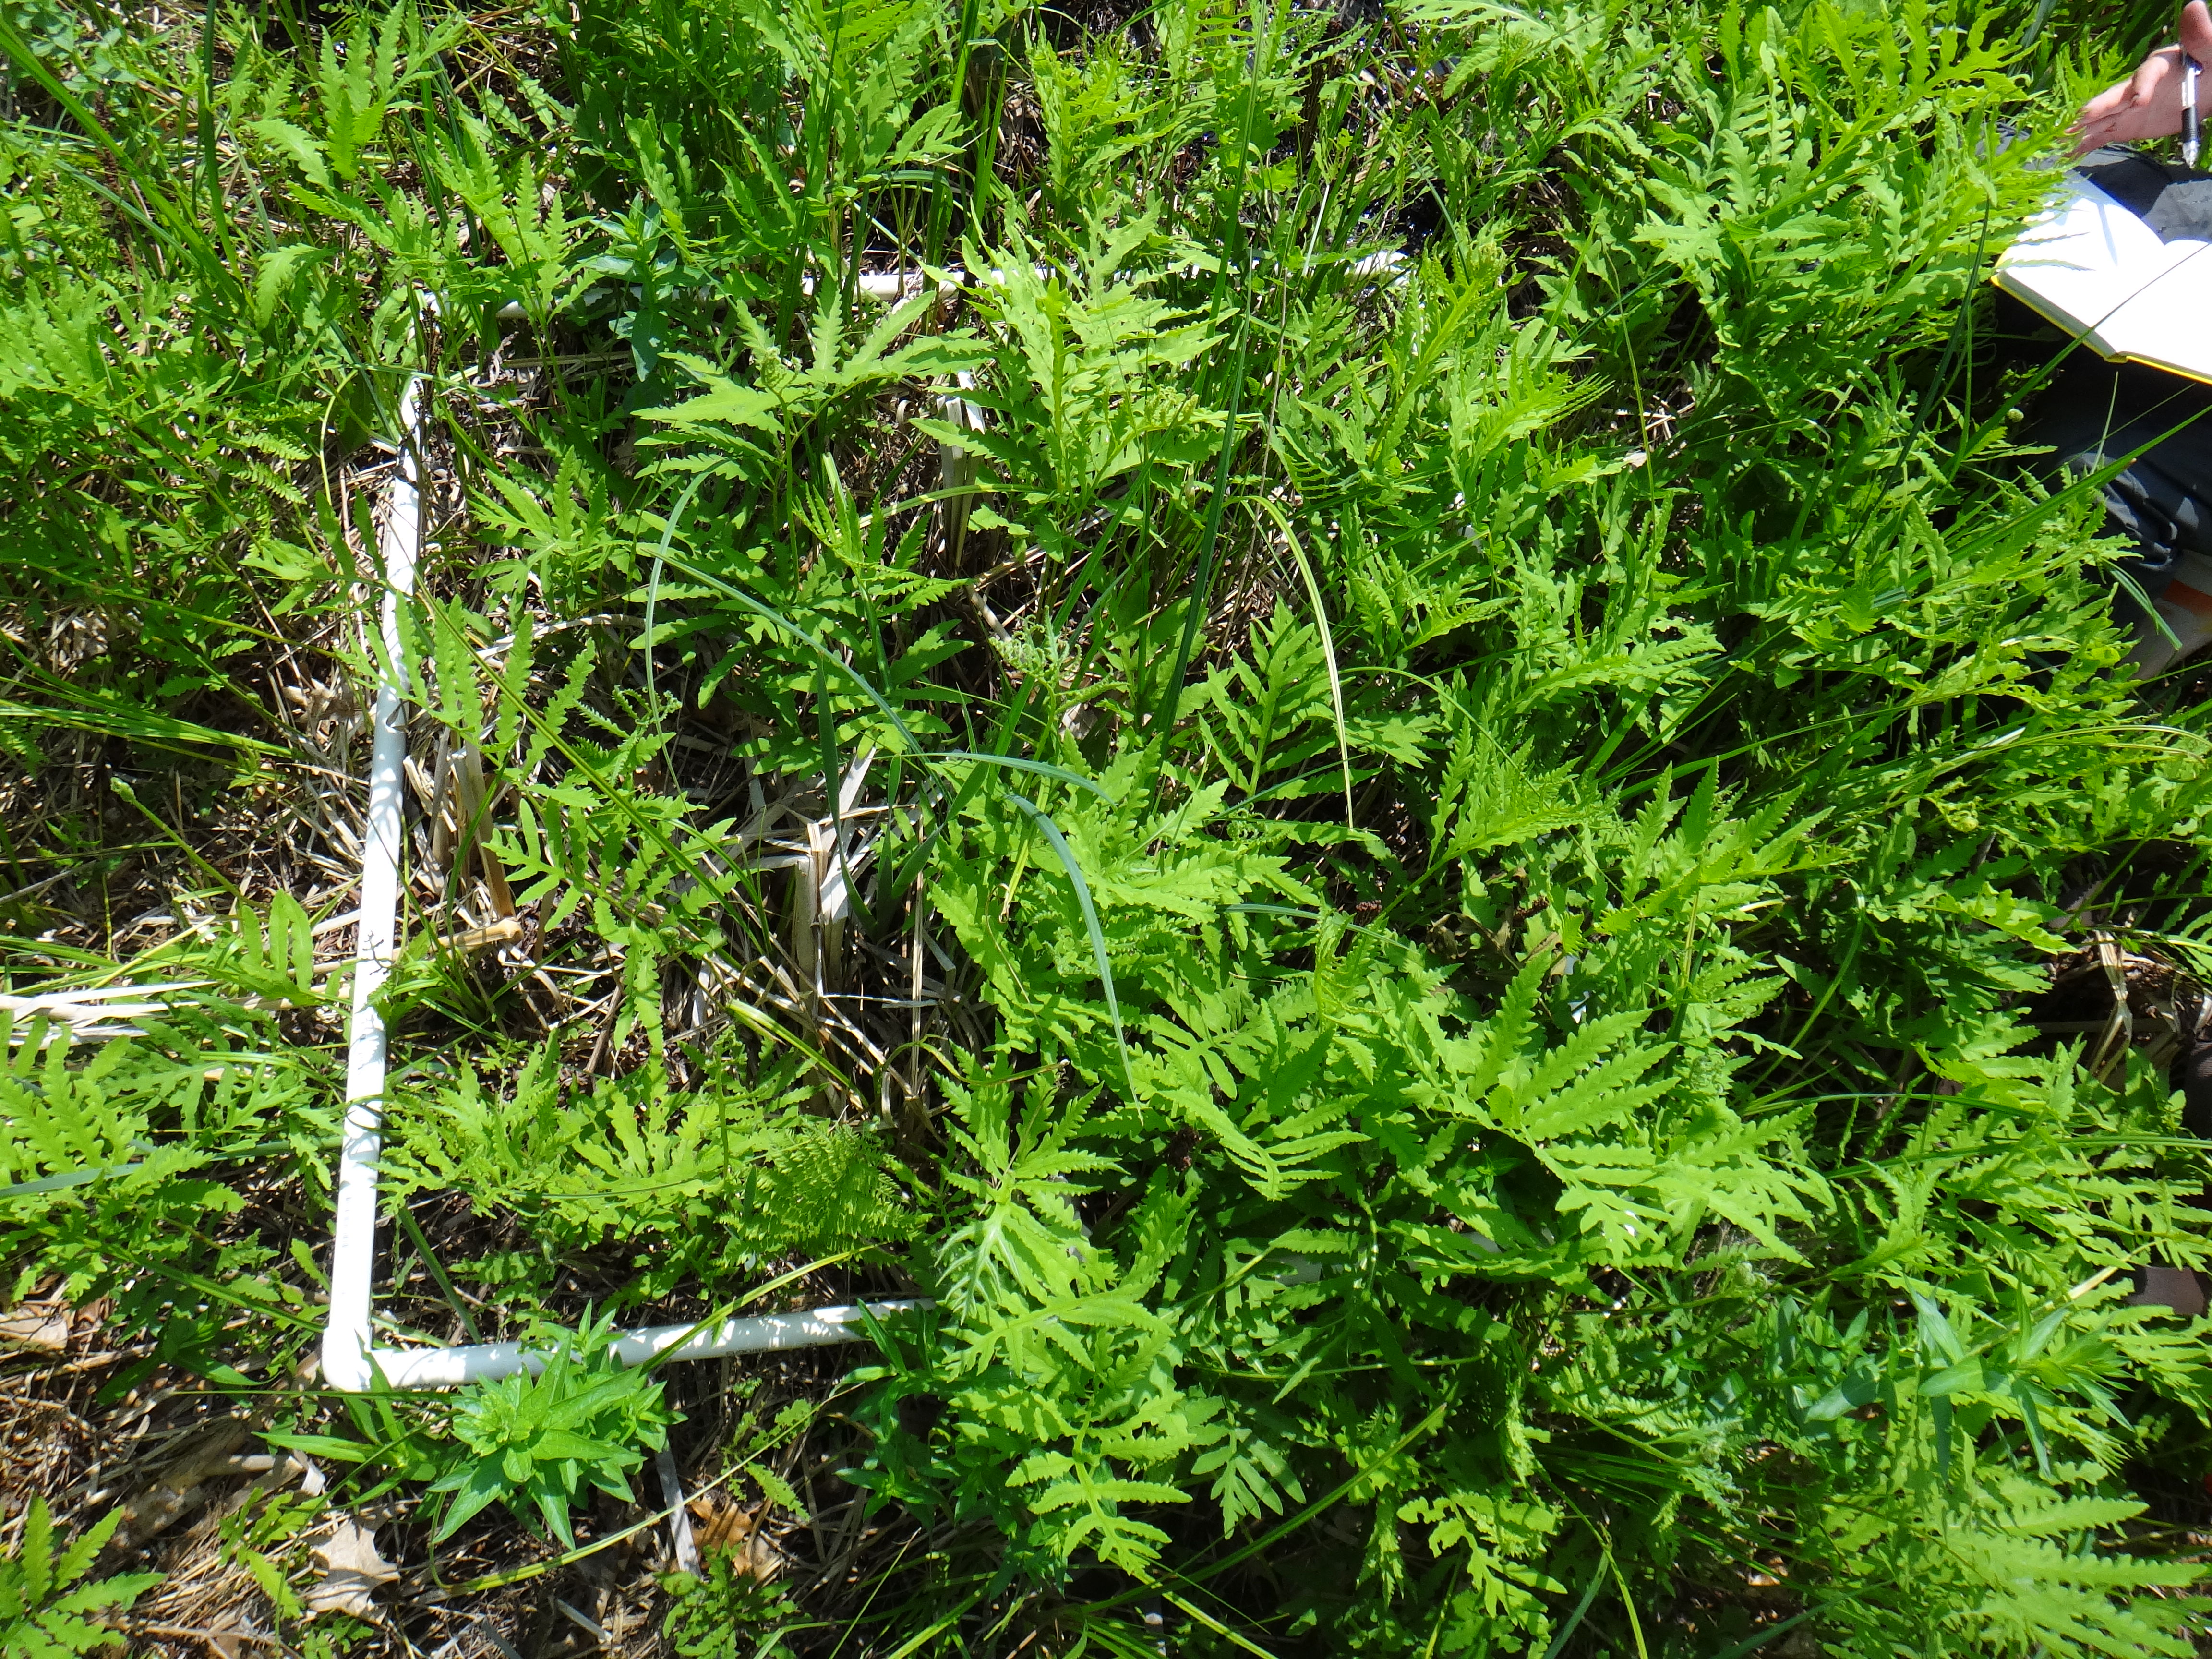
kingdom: Plantae
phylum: Tracheophyta
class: Magnoliopsida
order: Lamiales
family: Lamiaceae
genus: Lycopus
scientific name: Lycopus uniflorus
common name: Northern bugleweed
